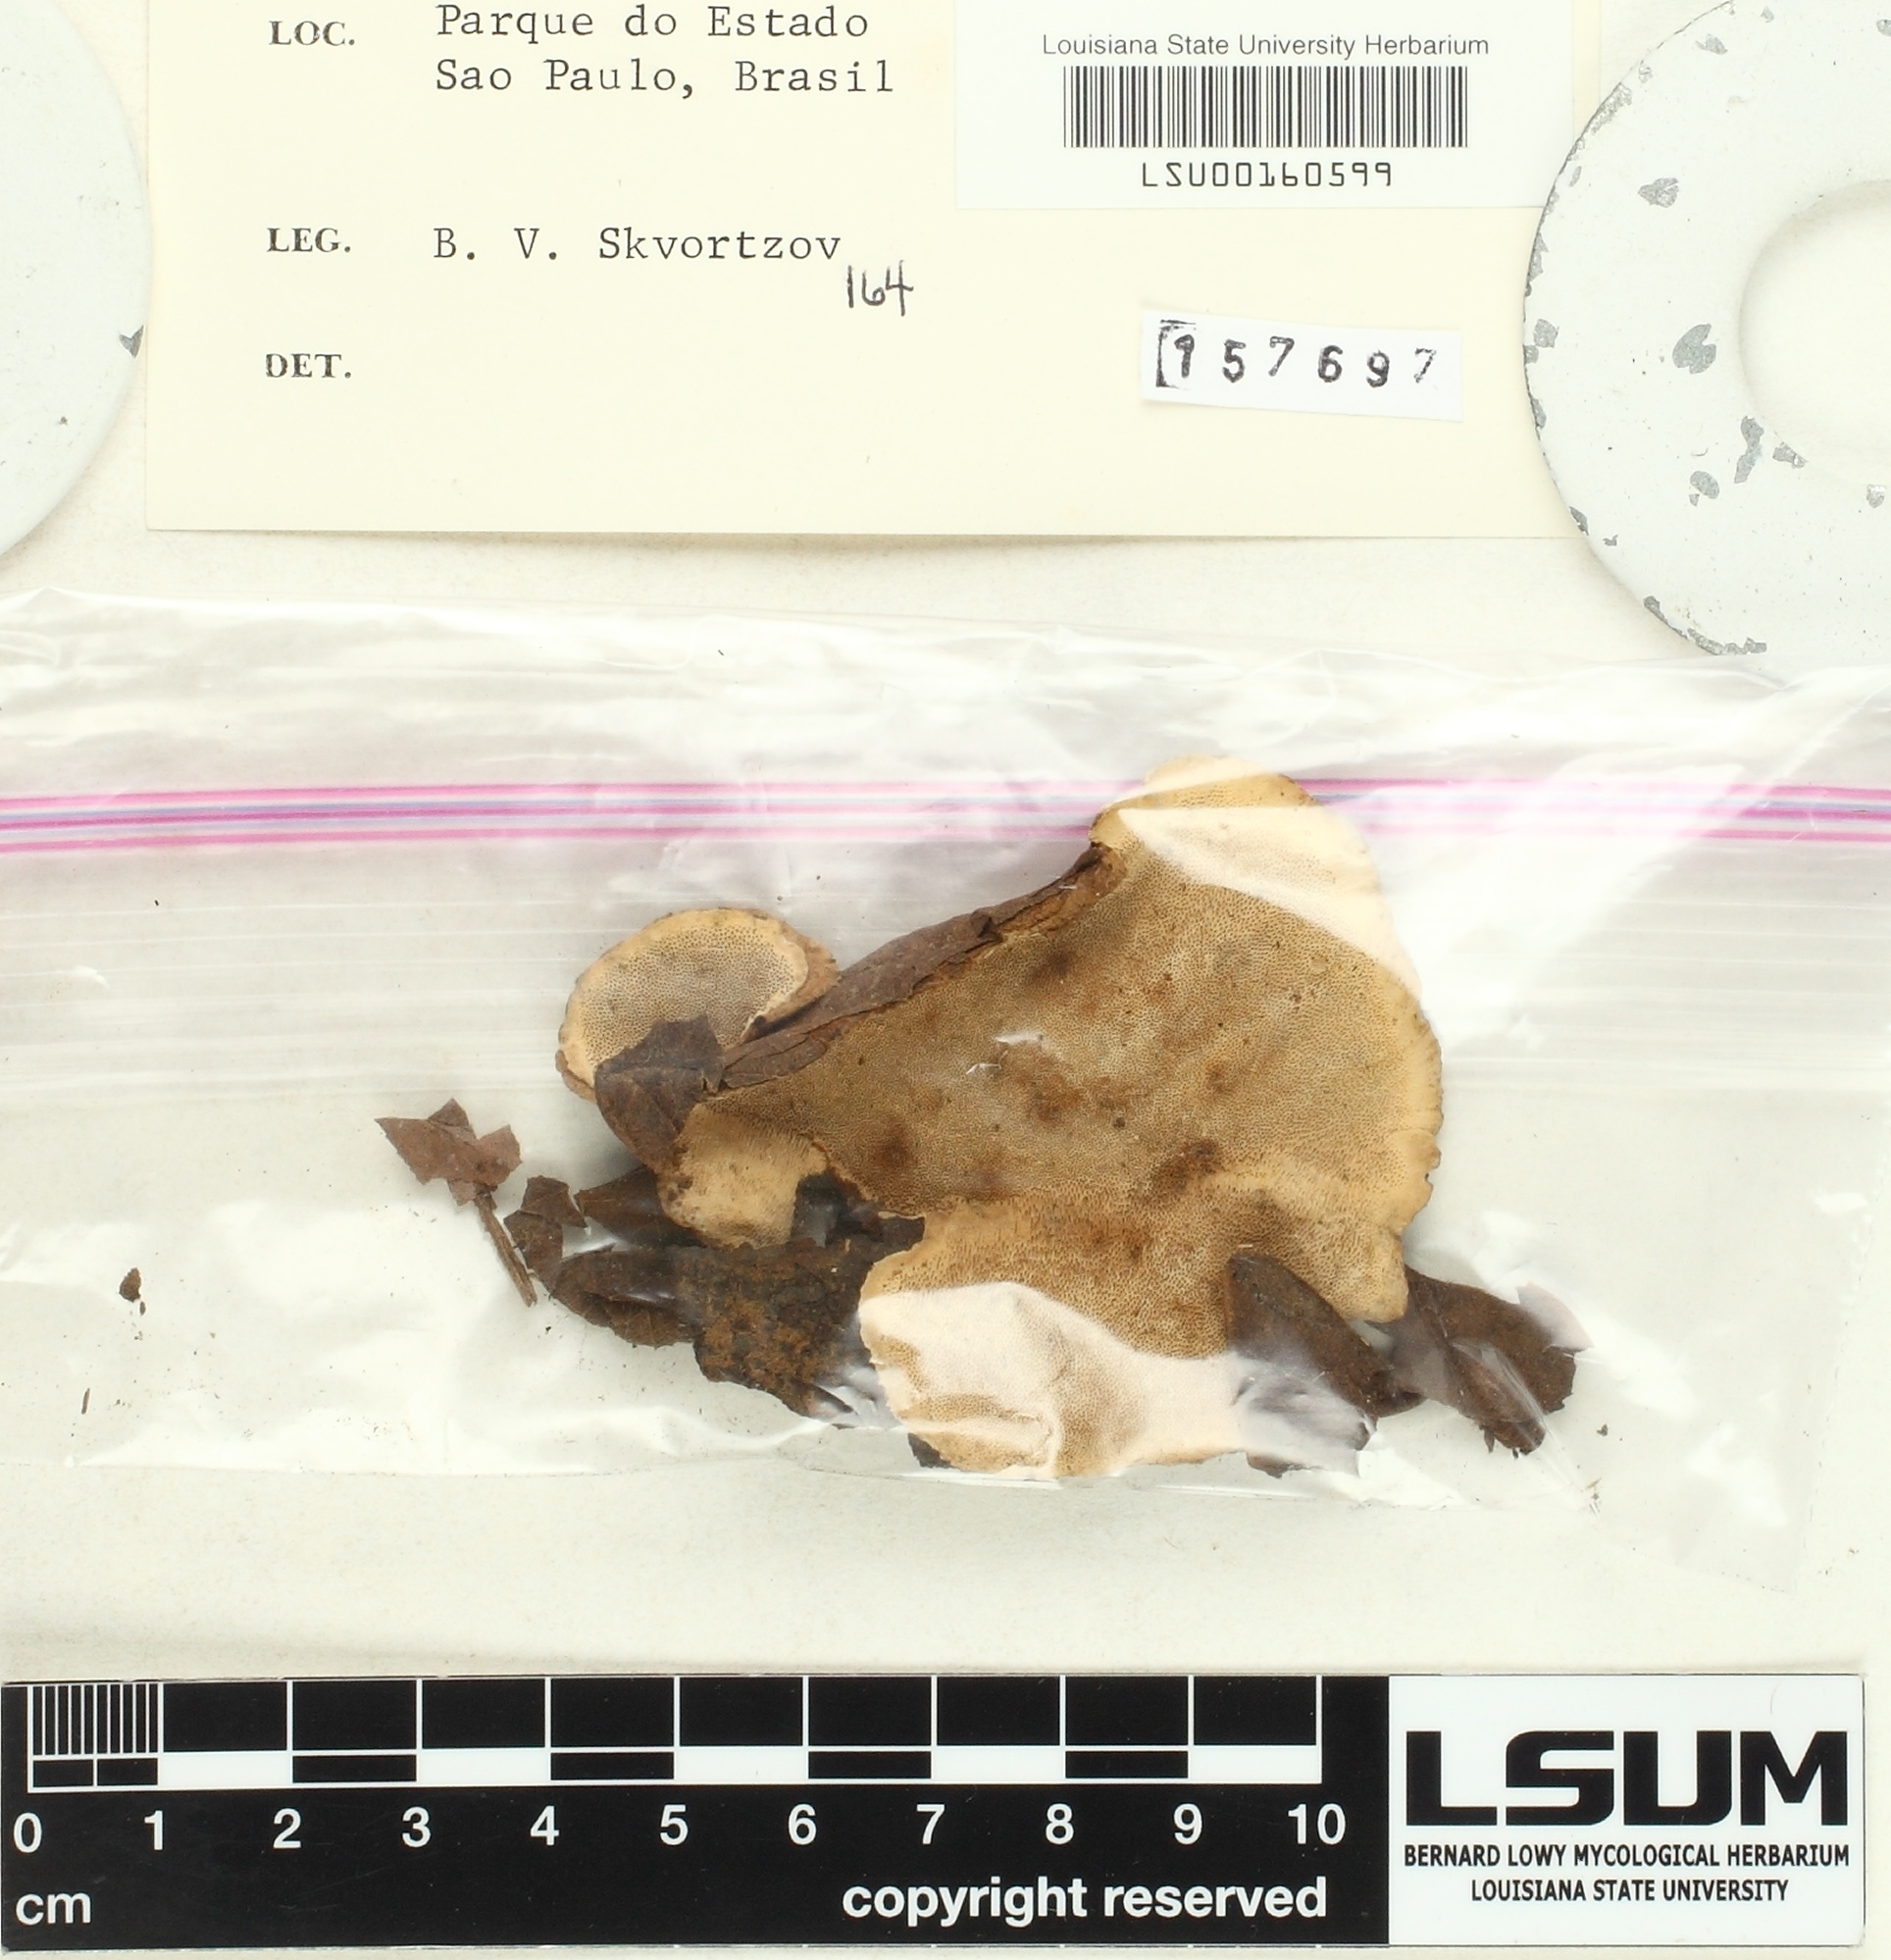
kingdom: Fungi
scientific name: Fungi
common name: Fungi
